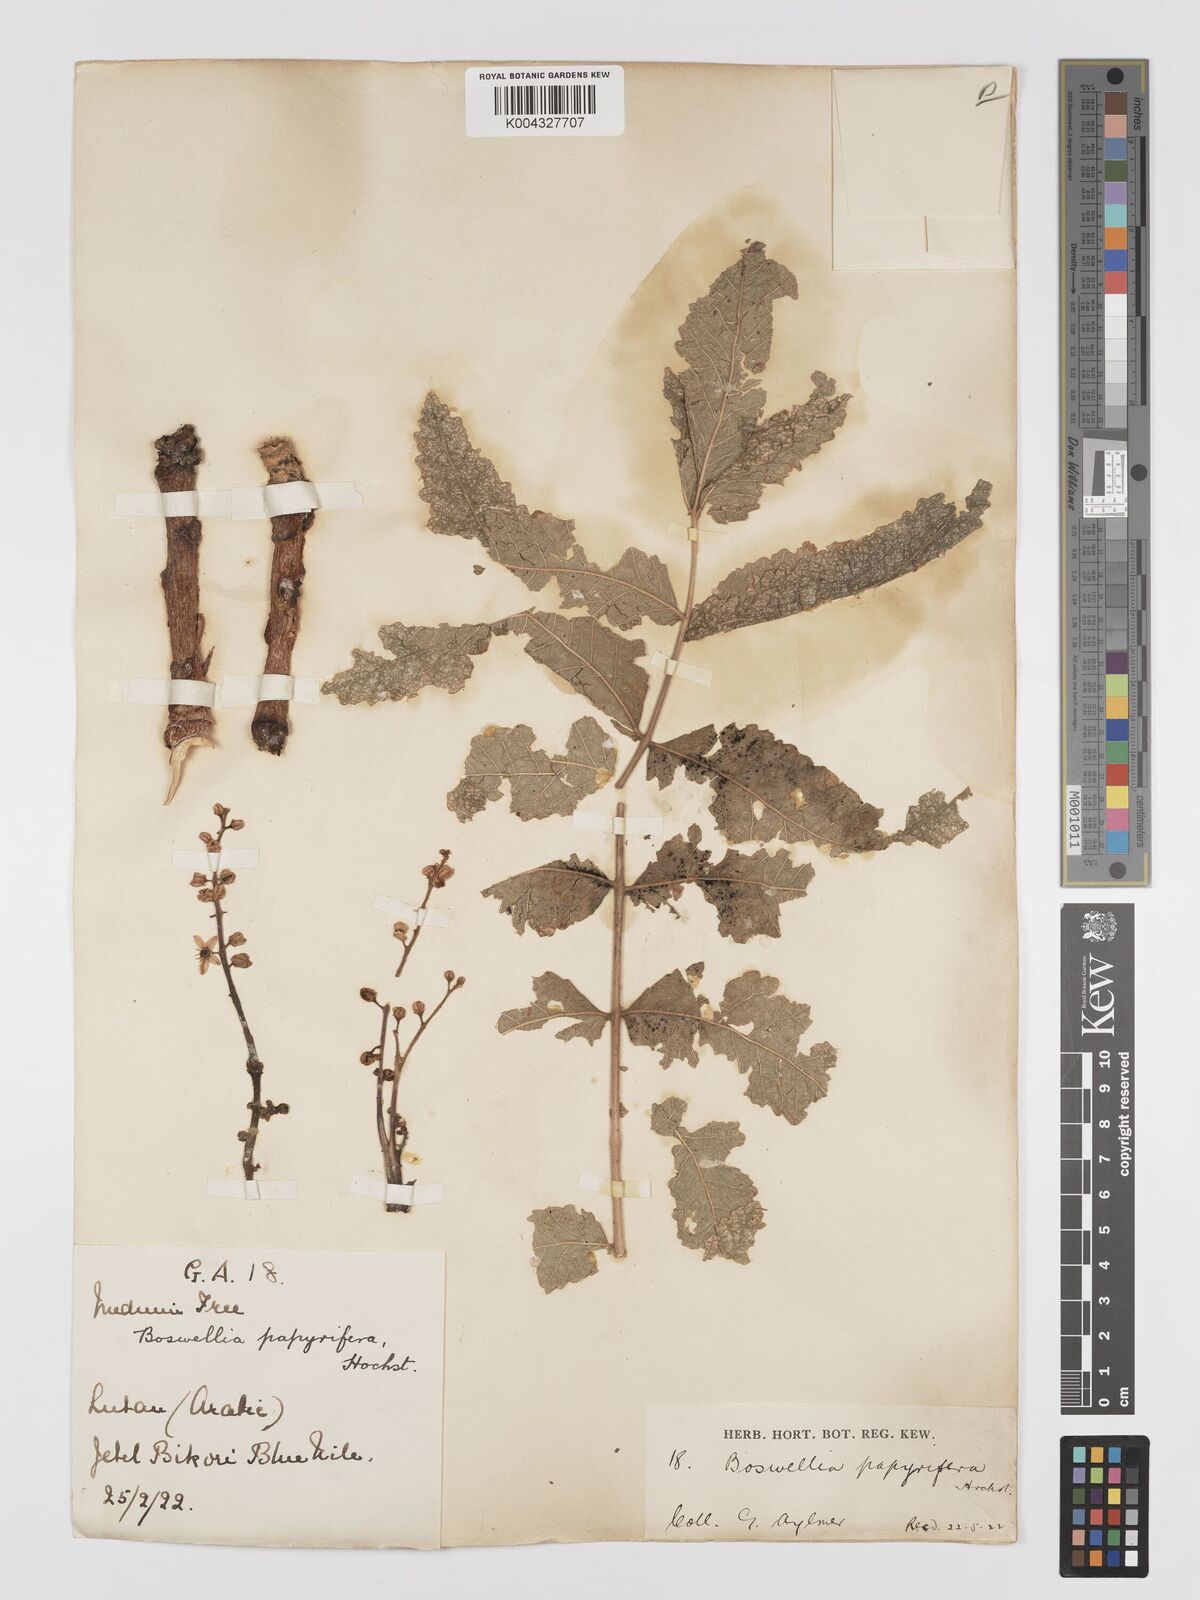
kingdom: Plantae
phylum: Tracheophyta
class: Magnoliopsida
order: Sapindales
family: Burseraceae
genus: Boswellia
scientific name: Boswellia papyrifera
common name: Sudanese frankincense
